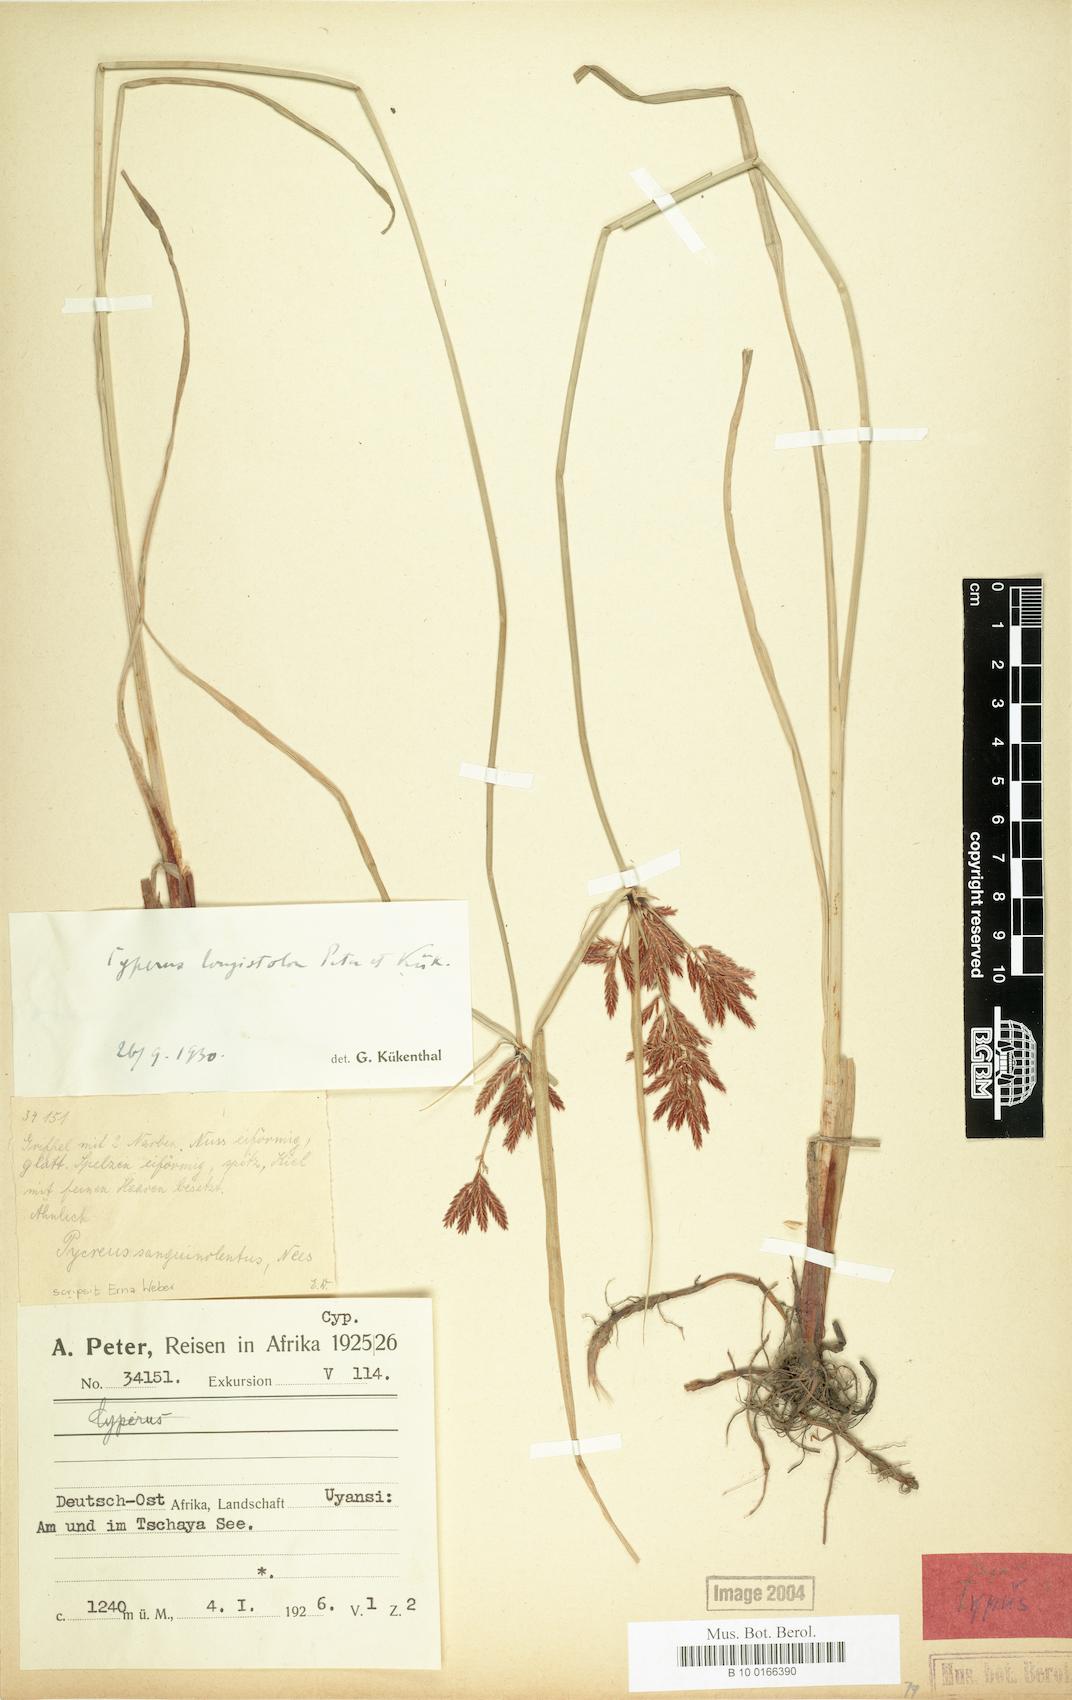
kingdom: Plantae
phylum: Tracheophyta
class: Liliopsida
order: Poales
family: Cyperaceae
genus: Cyperus
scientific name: Cyperus chrysanthus
